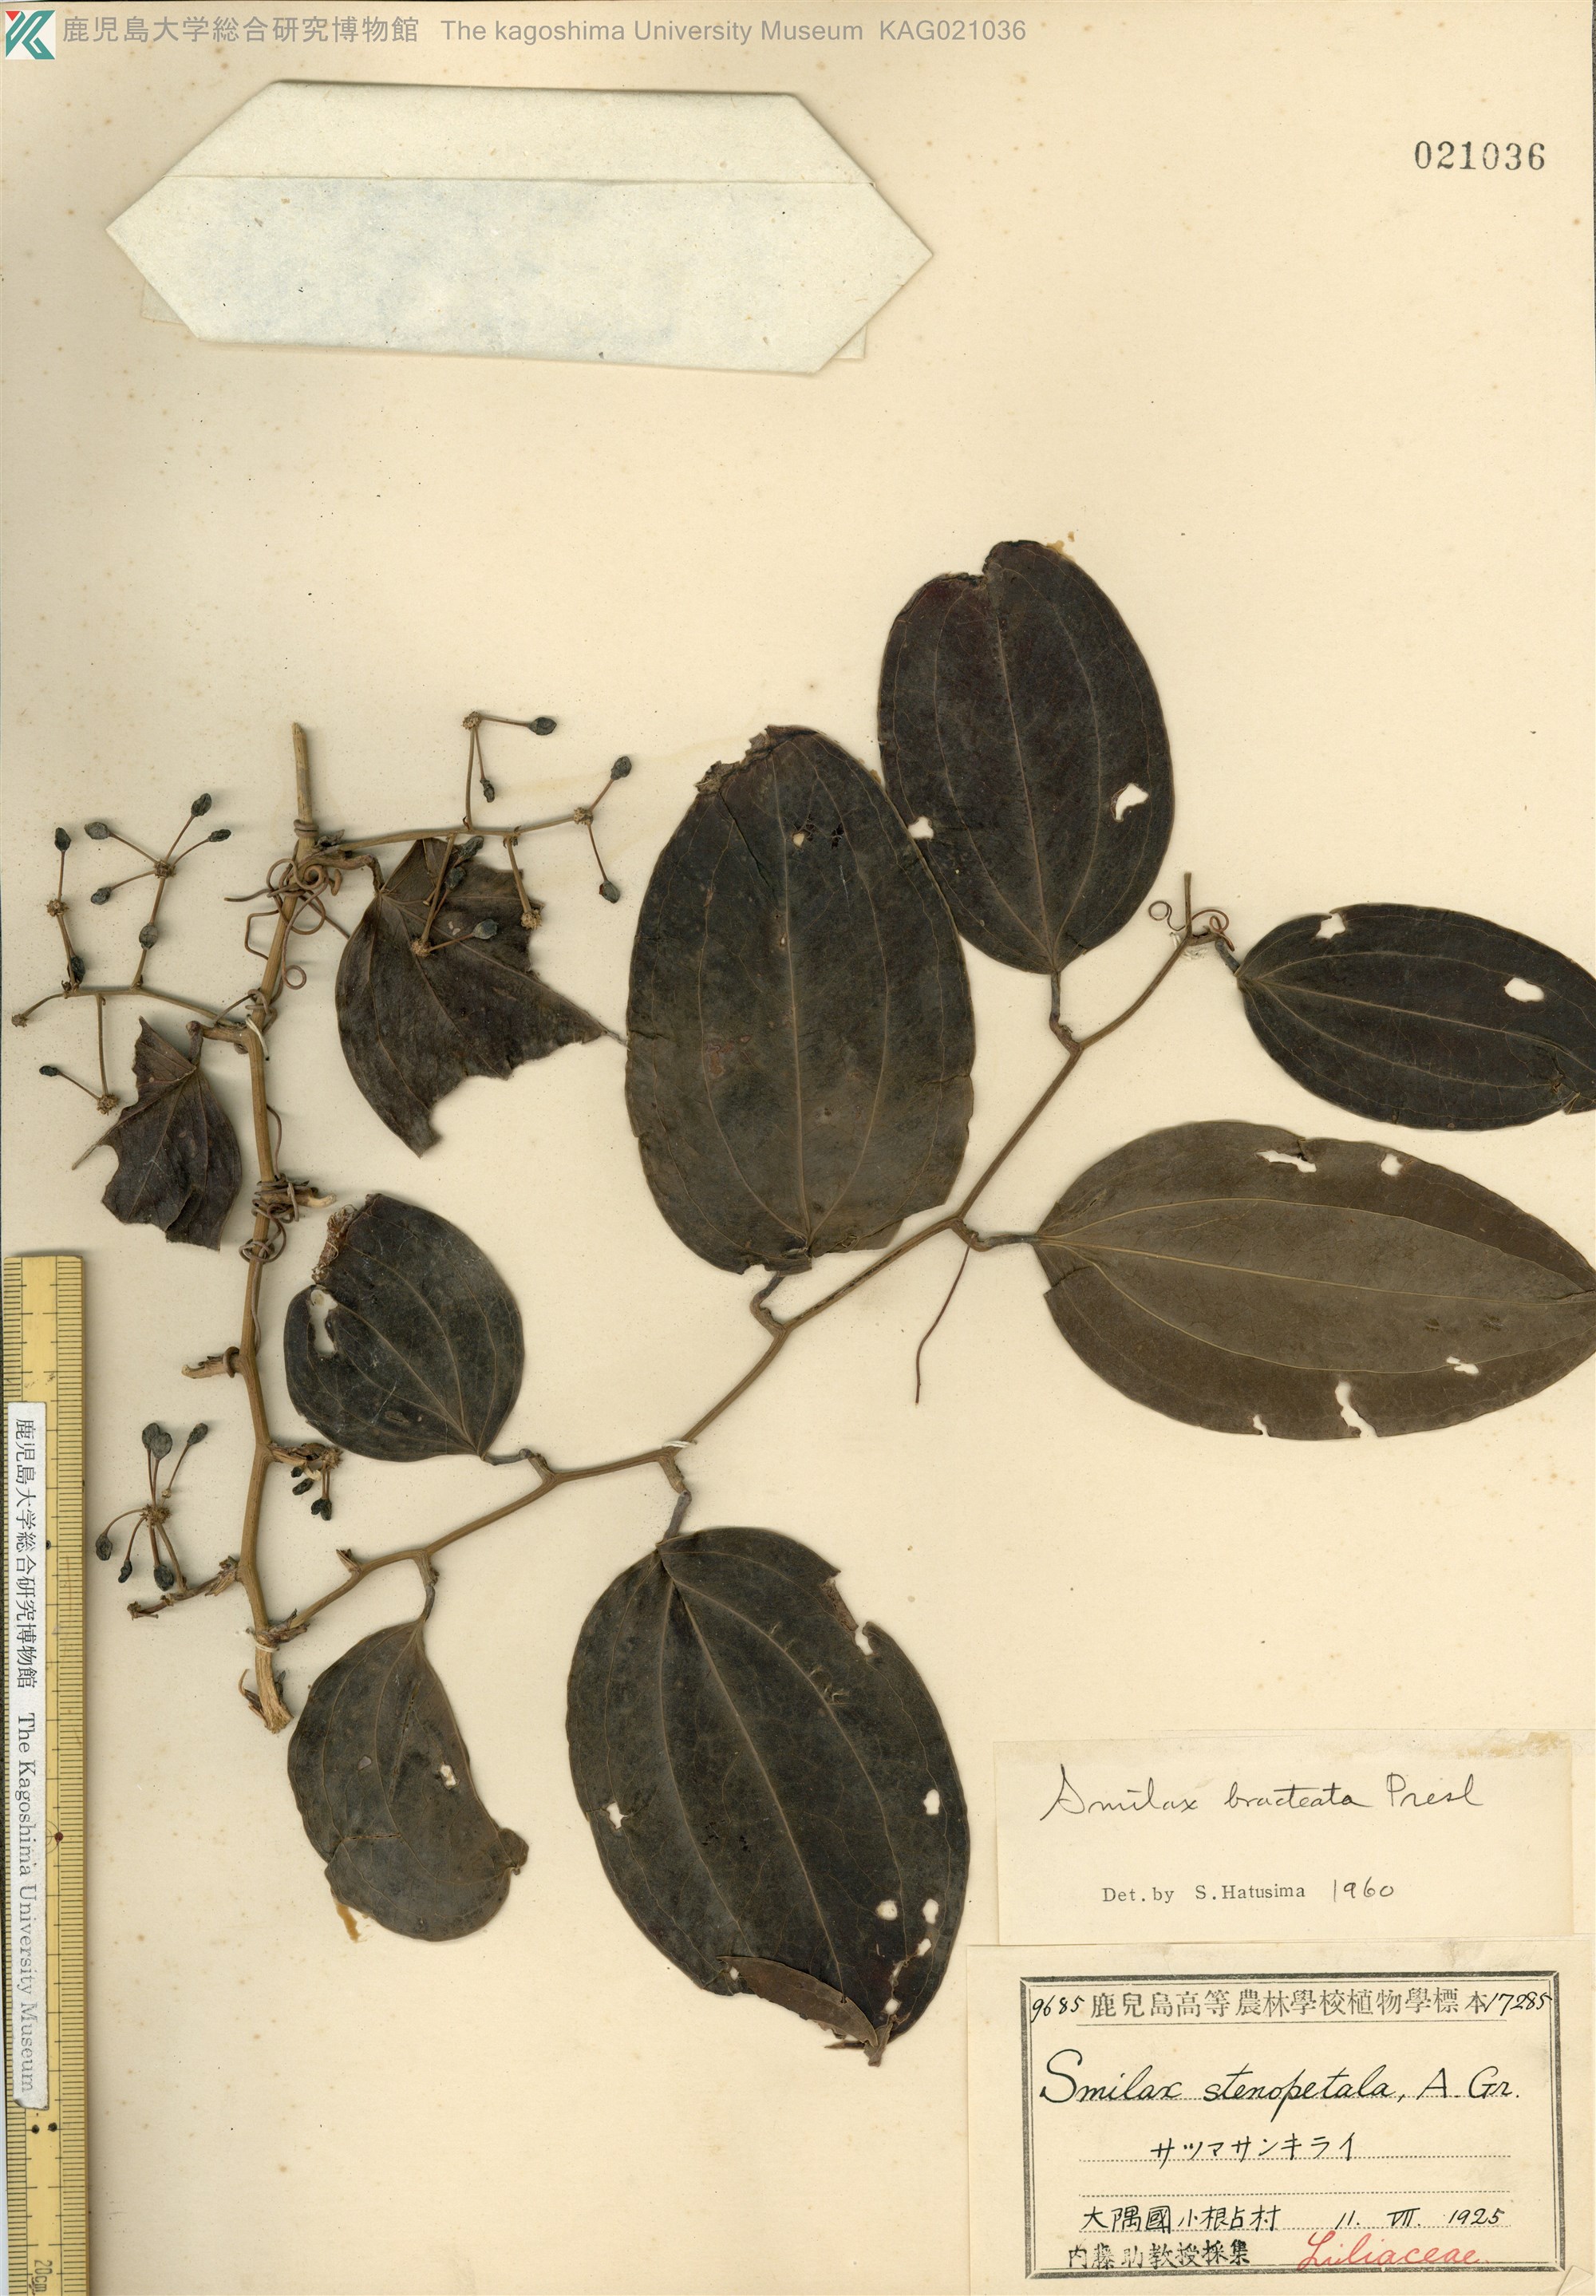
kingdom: Plantae
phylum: Tracheophyta
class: Liliopsida
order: Liliales
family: Smilacaceae
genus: Smilax
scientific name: Smilax bracteata
